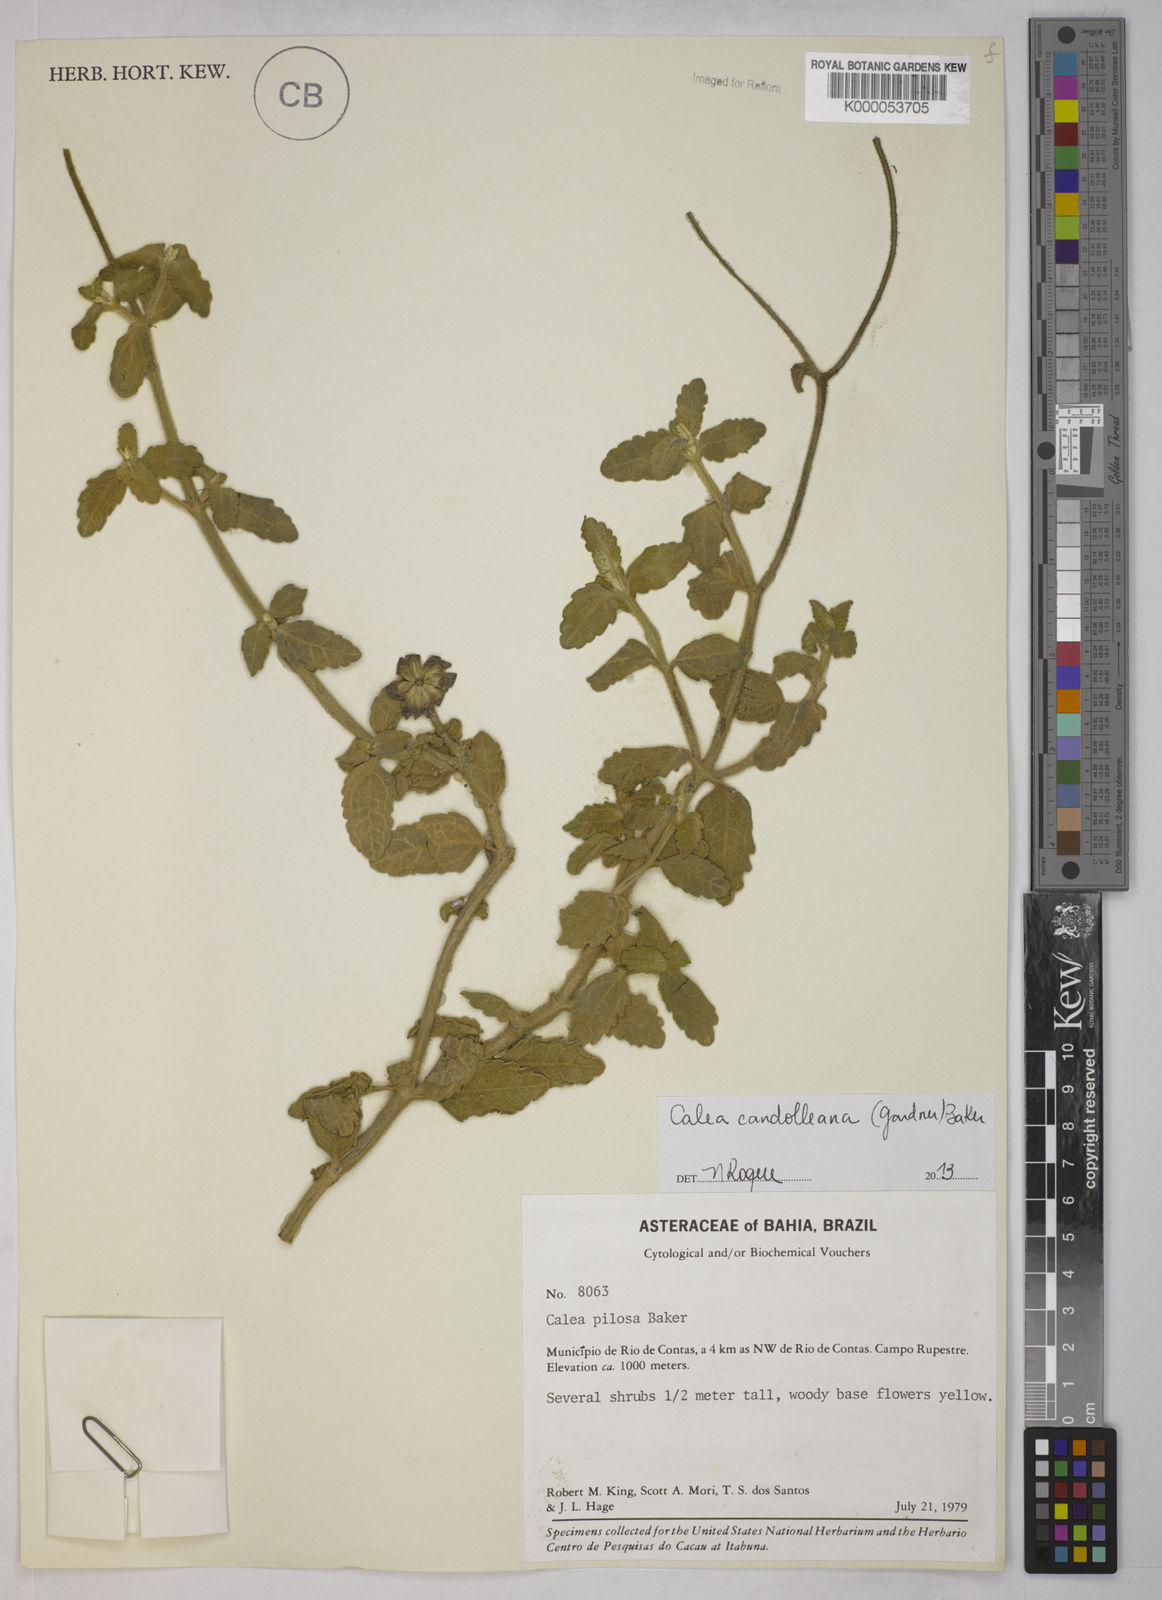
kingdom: Plantae
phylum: Tracheophyta
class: Magnoliopsida
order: Asterales
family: Asteraceae
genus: Calea
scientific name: Calea pilosa
